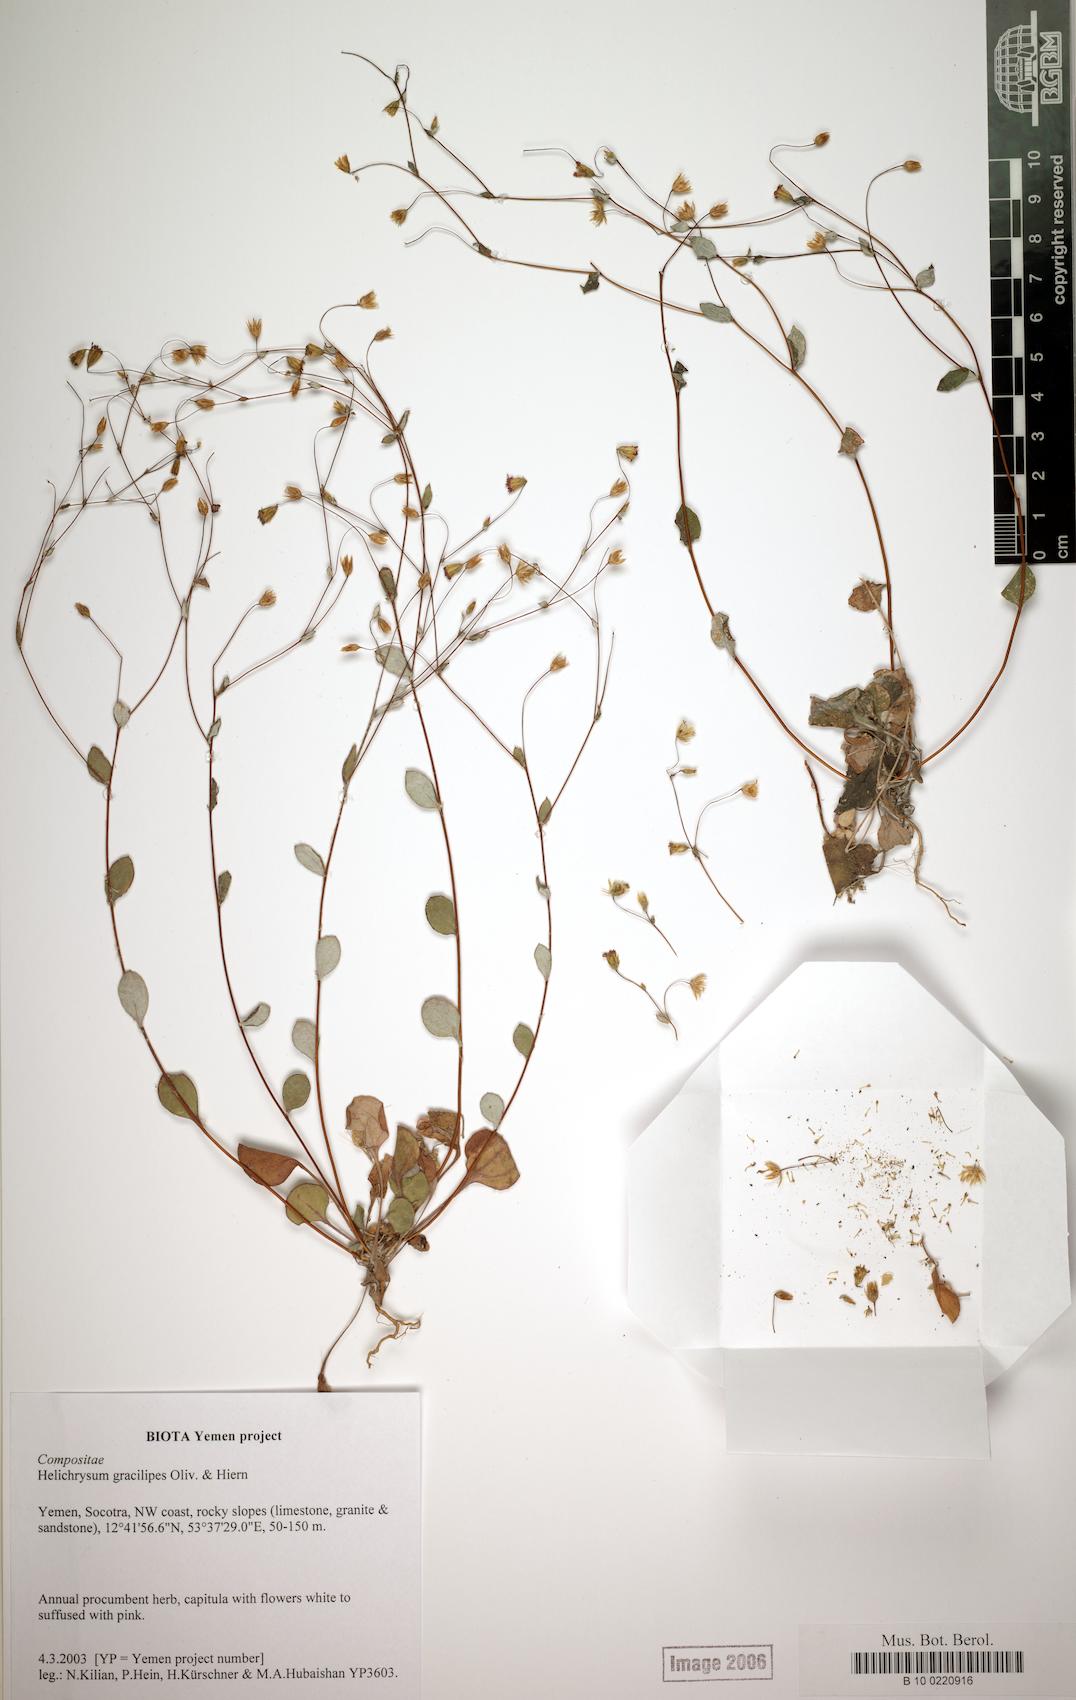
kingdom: Plantae
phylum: Tracheophyta
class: Magnoliopsida
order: Asterales
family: Asteraceae
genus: Libinhania
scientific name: Libinhania gracilipes
